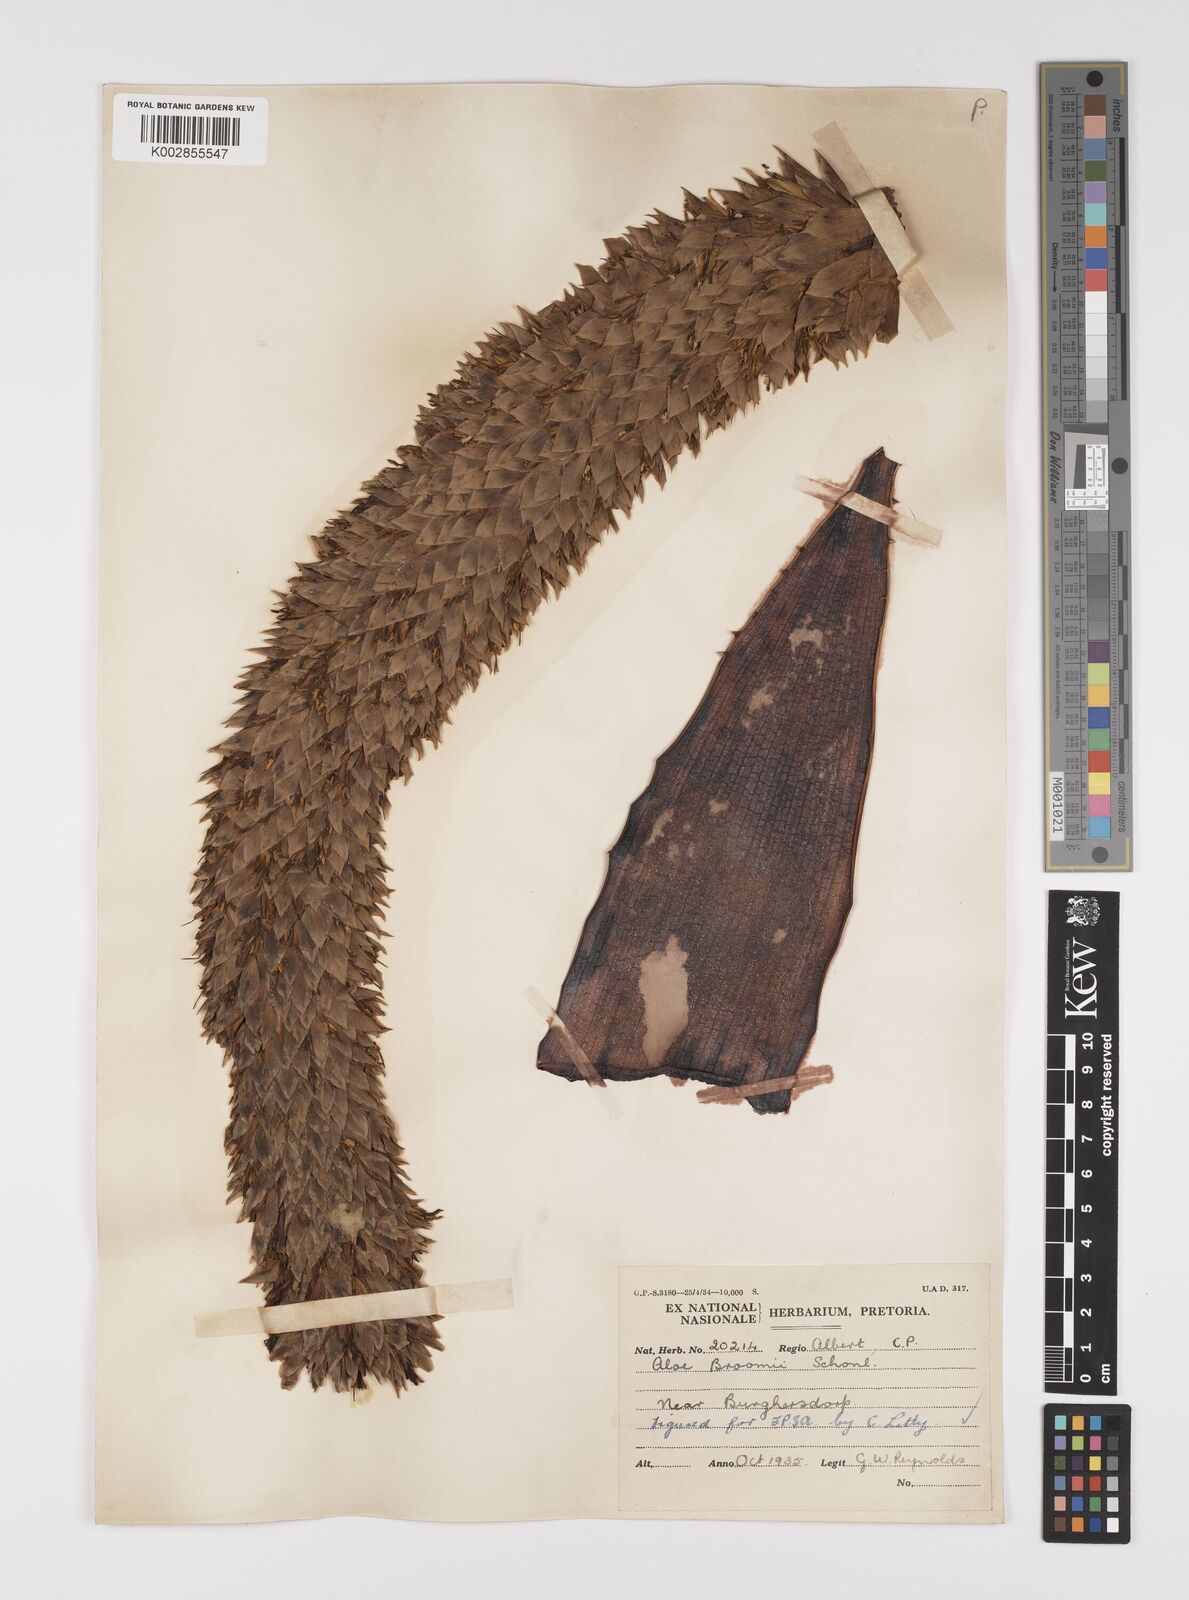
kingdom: Plantae
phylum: Tracheophyta
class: Liliopsida
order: Asparagales
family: Asphodelaceae
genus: Aloe
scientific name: Aloe broomii
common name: Berg alwyn
